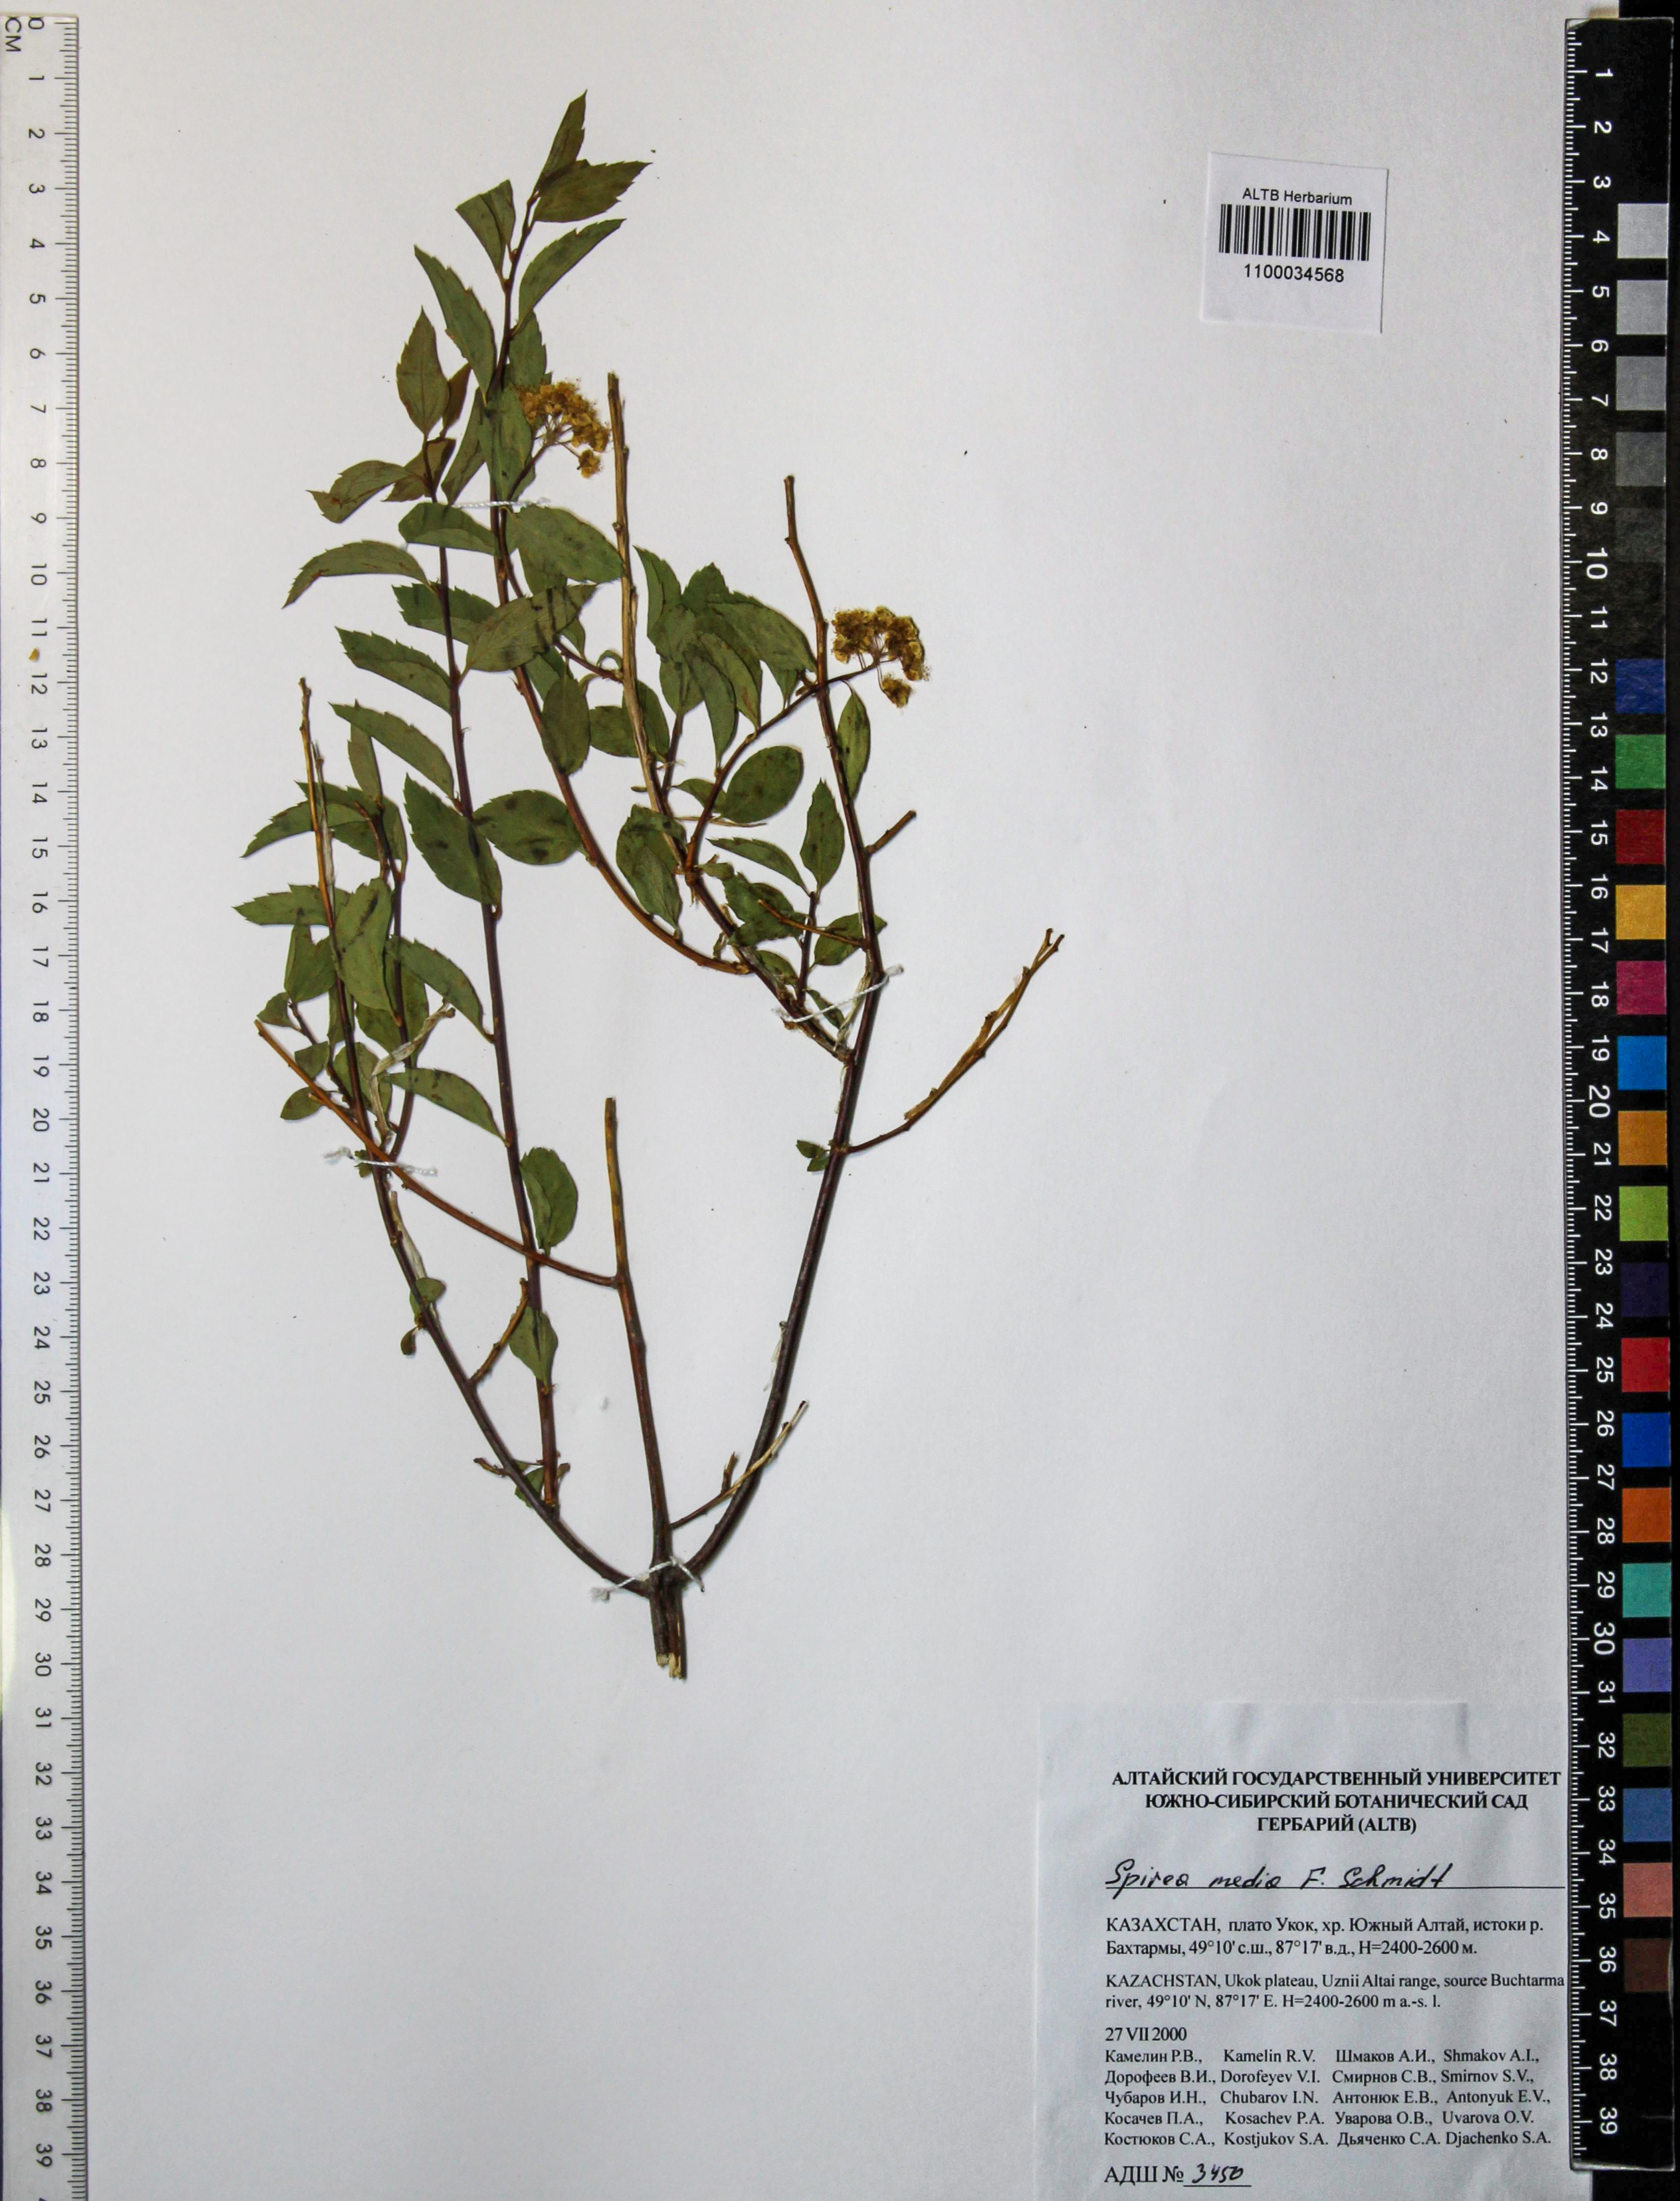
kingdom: Plantae
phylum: Tracheophyta
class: Magnoliopsida
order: Rosales
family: Rosaceae
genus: Spiraea
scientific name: Spiraea media
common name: Russian spiraea
